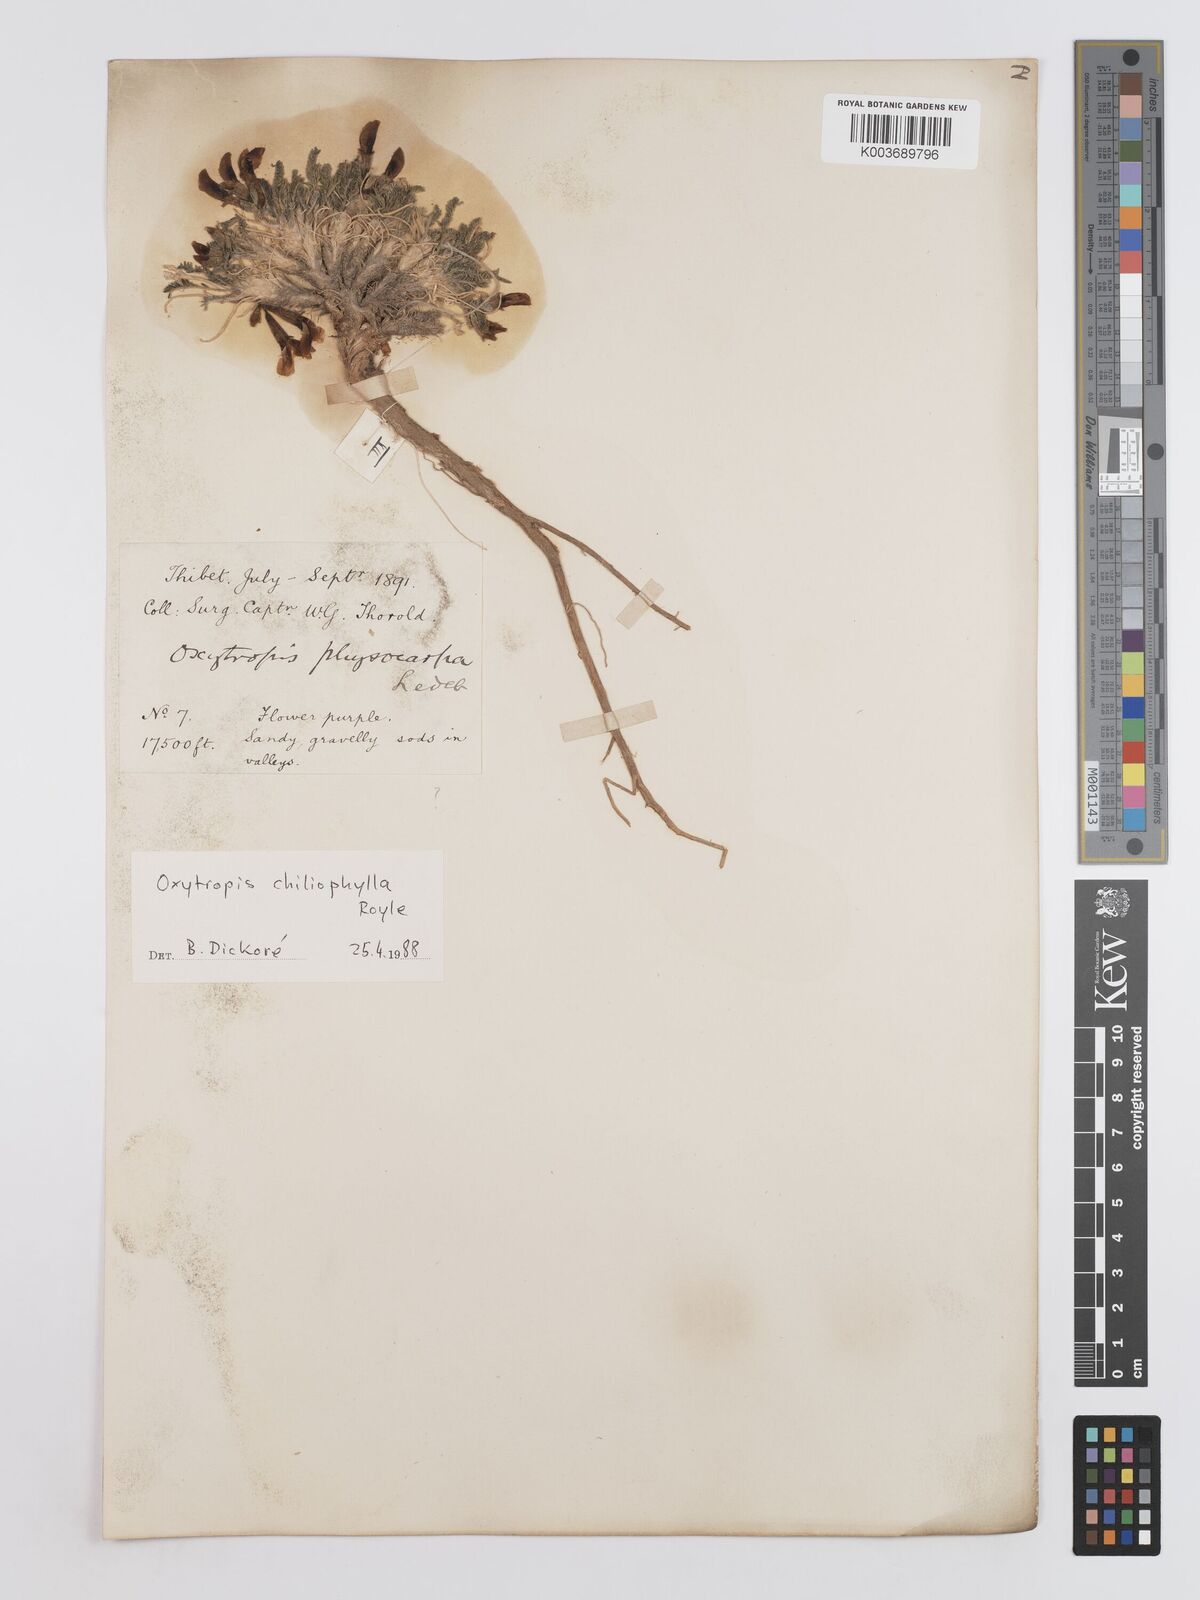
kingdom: Plantae
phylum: Tracheophyta
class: Magnoliopsida
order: Fabales
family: Fabaceae
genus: Oxytropis
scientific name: Oxytropis chiliophylla
